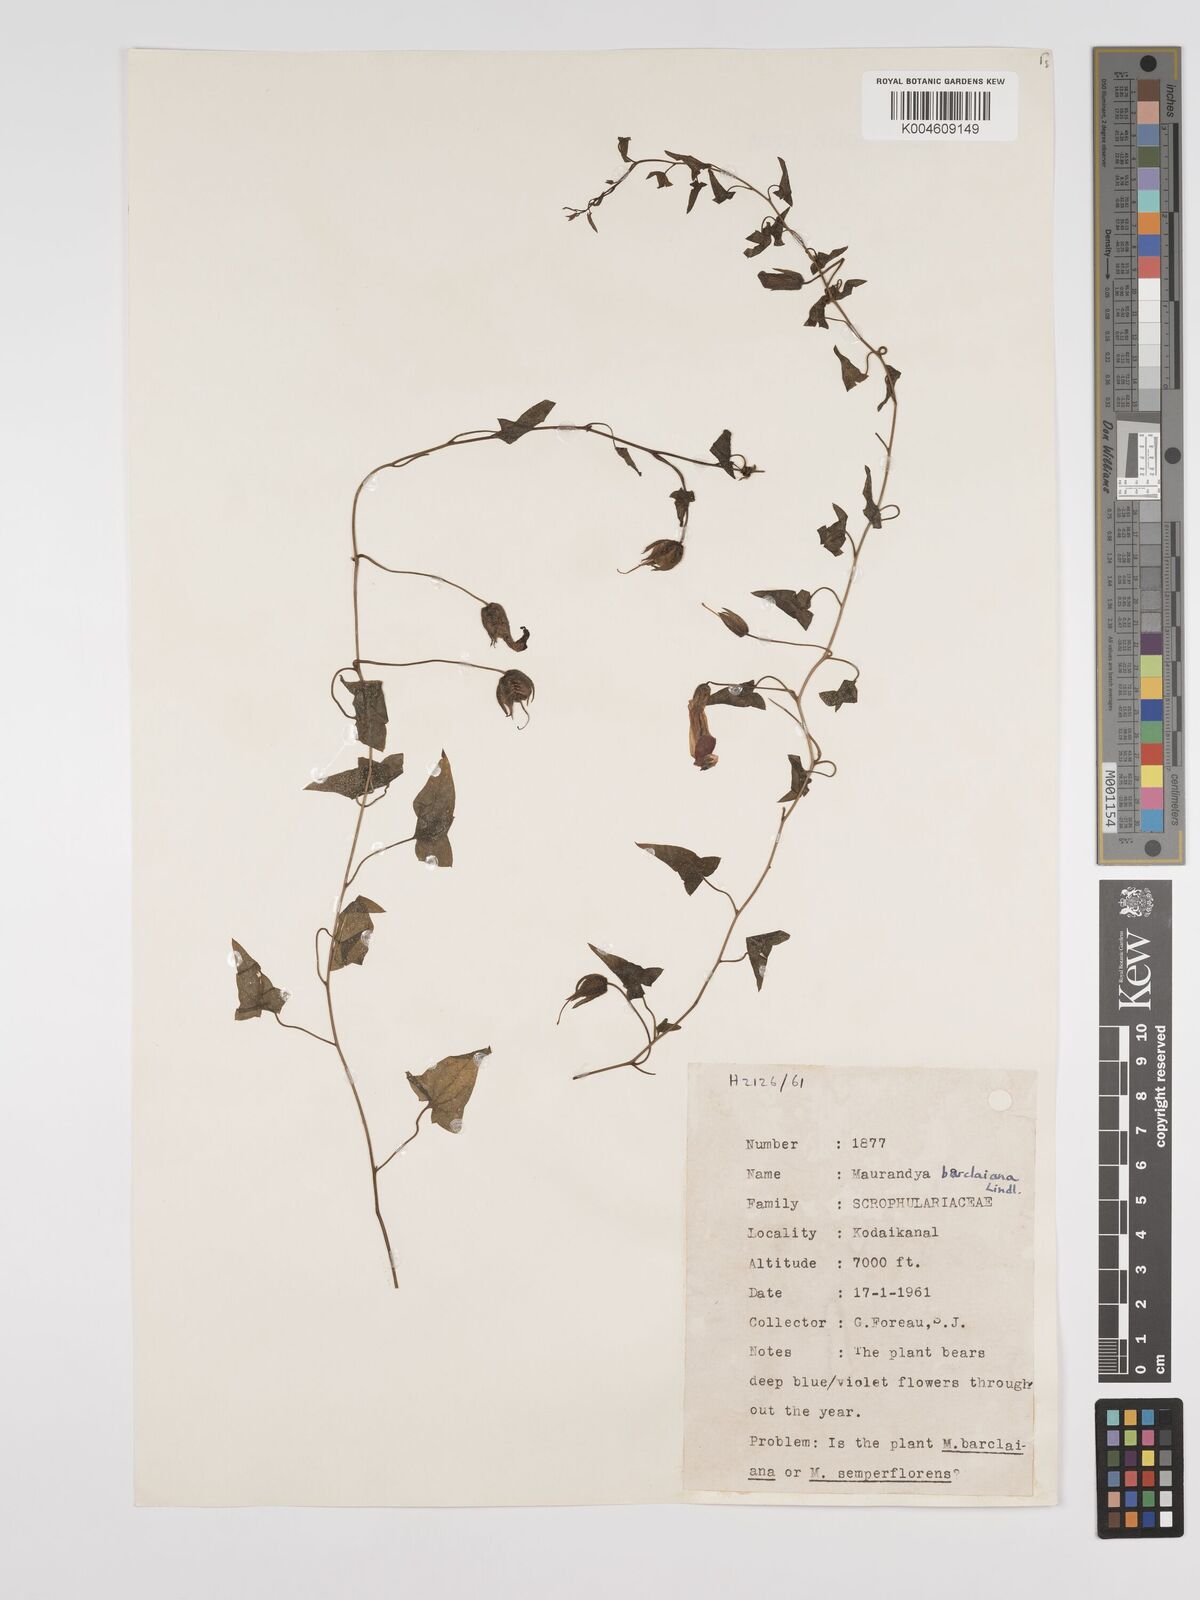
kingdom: Plantae
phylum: Tracheophyta
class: Magnoliopsida
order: Lamiales
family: Plantaginaceae
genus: Maurandya
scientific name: Maurandya barclayana
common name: Mexican viper
